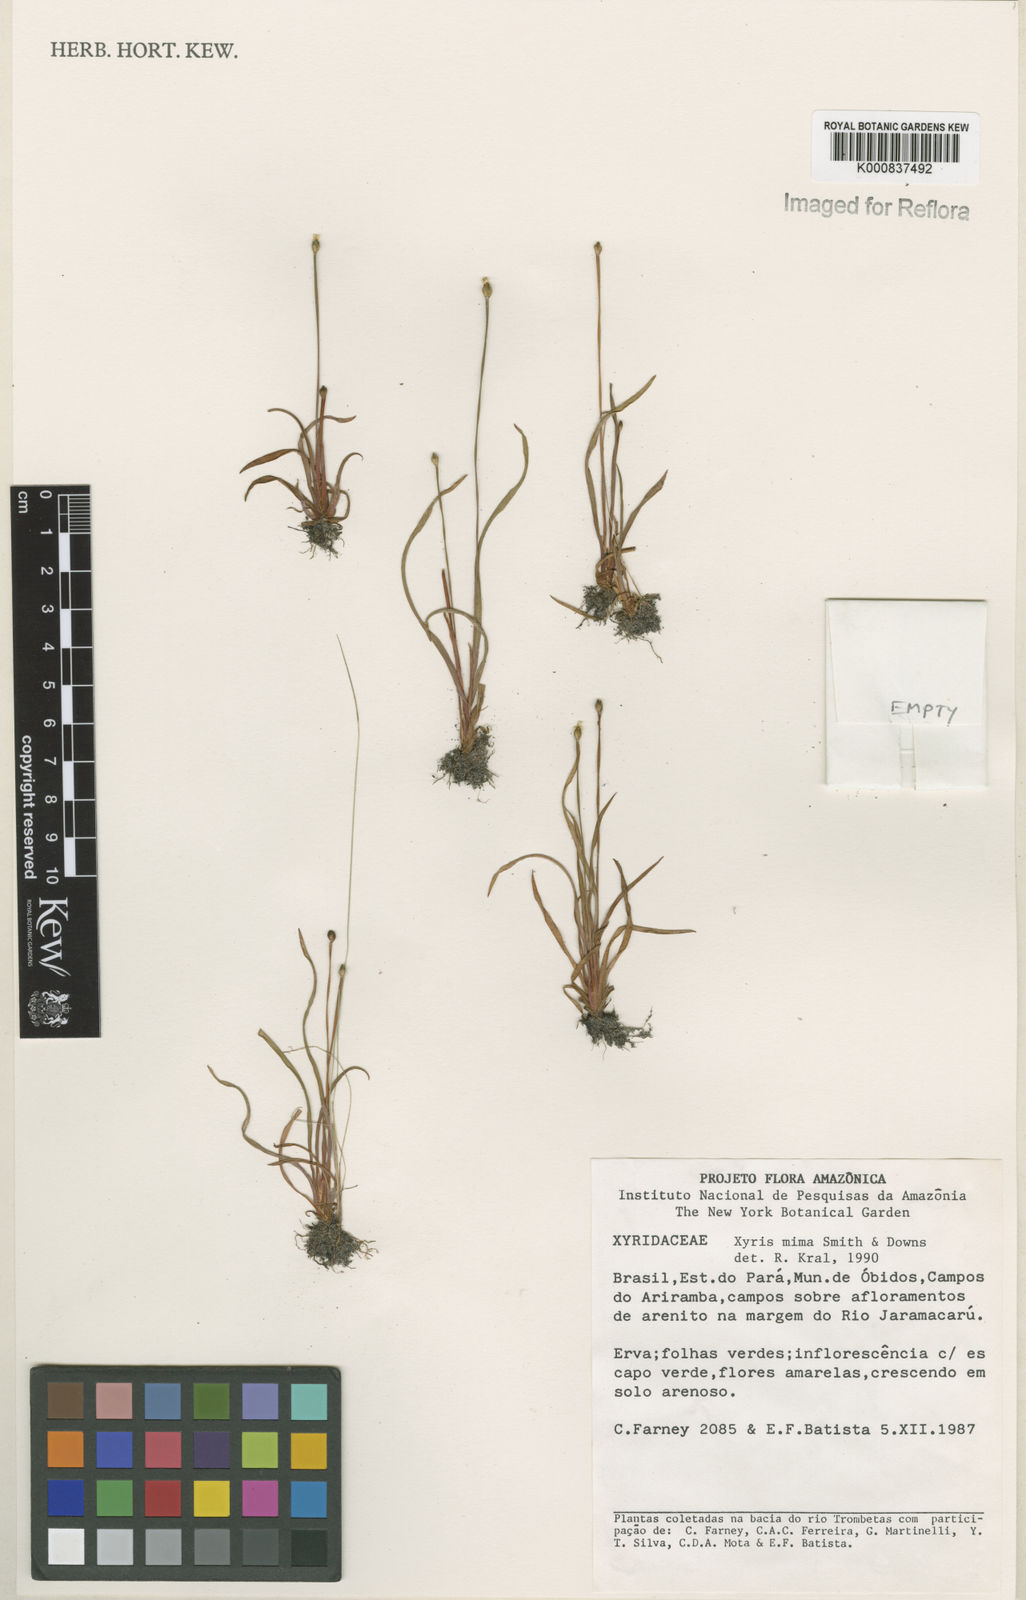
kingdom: Plantae
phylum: Tracheophyta
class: Liliopsida
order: Poales
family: Xyridaceae
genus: Xyris
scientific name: Xyris mima
